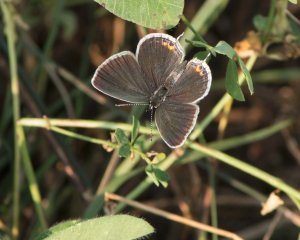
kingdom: Animalia
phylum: Arthropoda
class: Insecta
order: Lepidoptera
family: Lycaenidae
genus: Elkalyce
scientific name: Elkalyce comyntas
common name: Eastern Tailed-Blue
